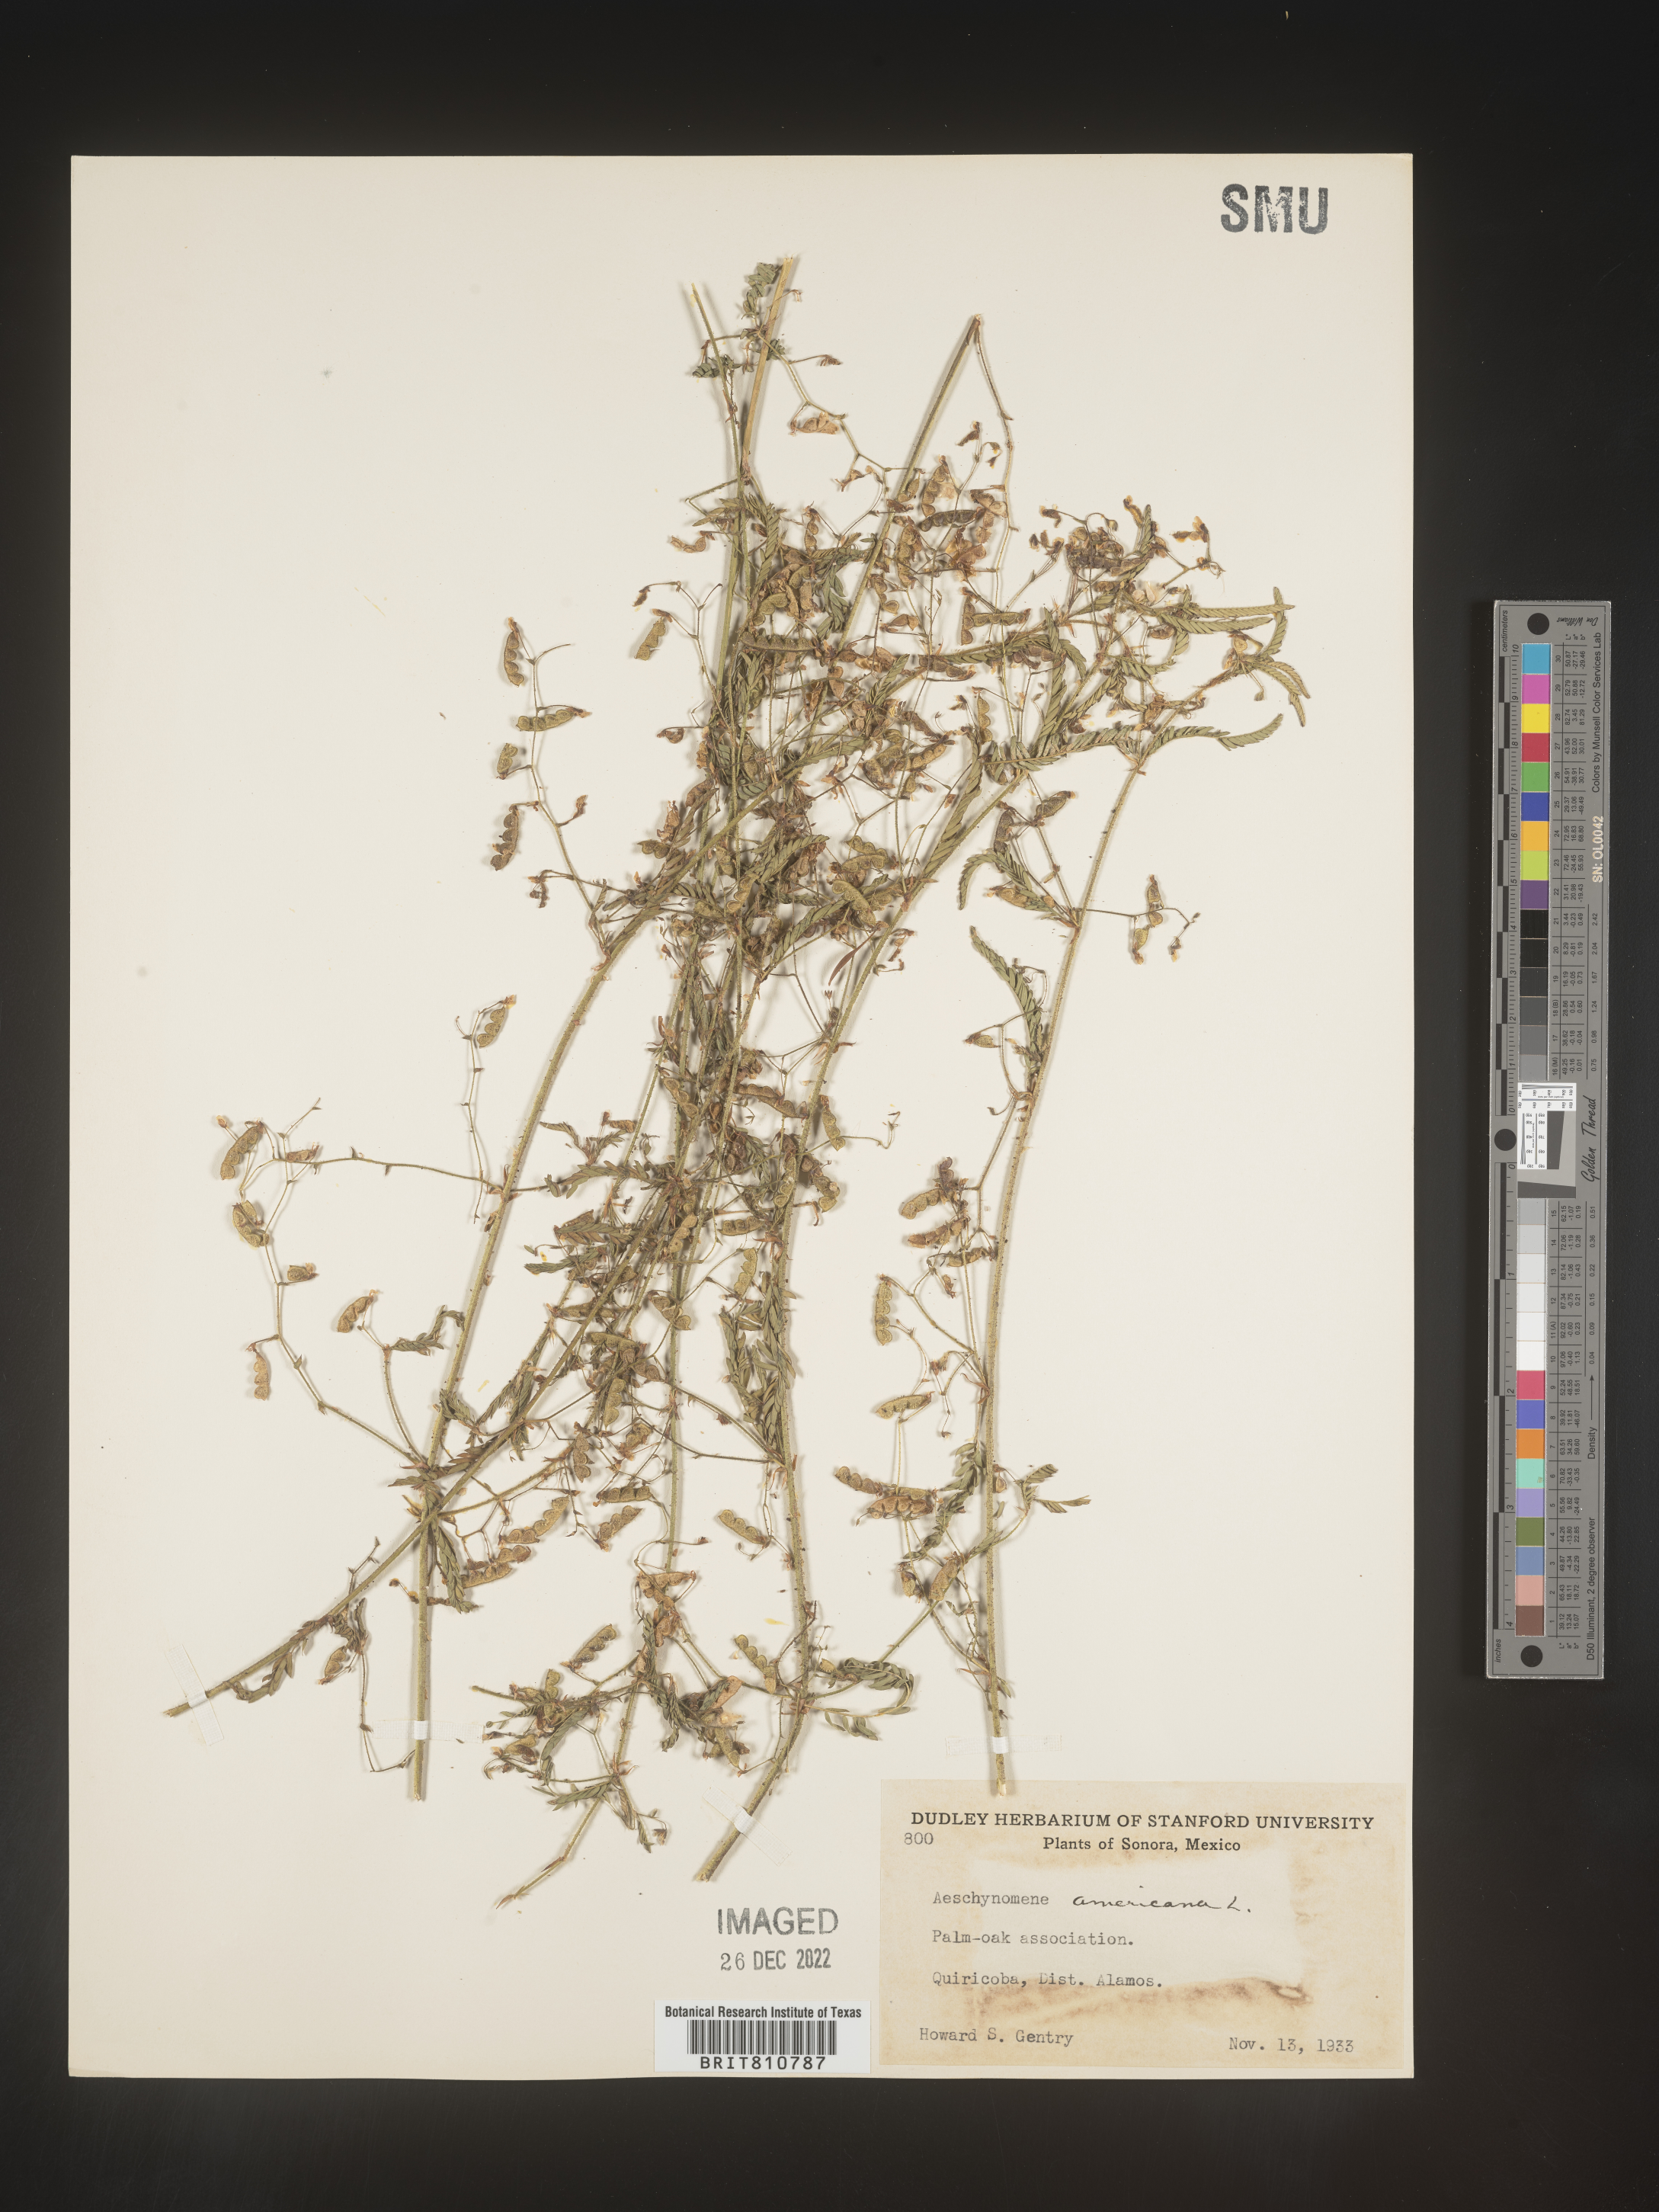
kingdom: Plantae
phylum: Tracheophyta
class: Magnoliopsida
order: Fabales
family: Fabaceae
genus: Aeschynomene
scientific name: Aeschynomene
